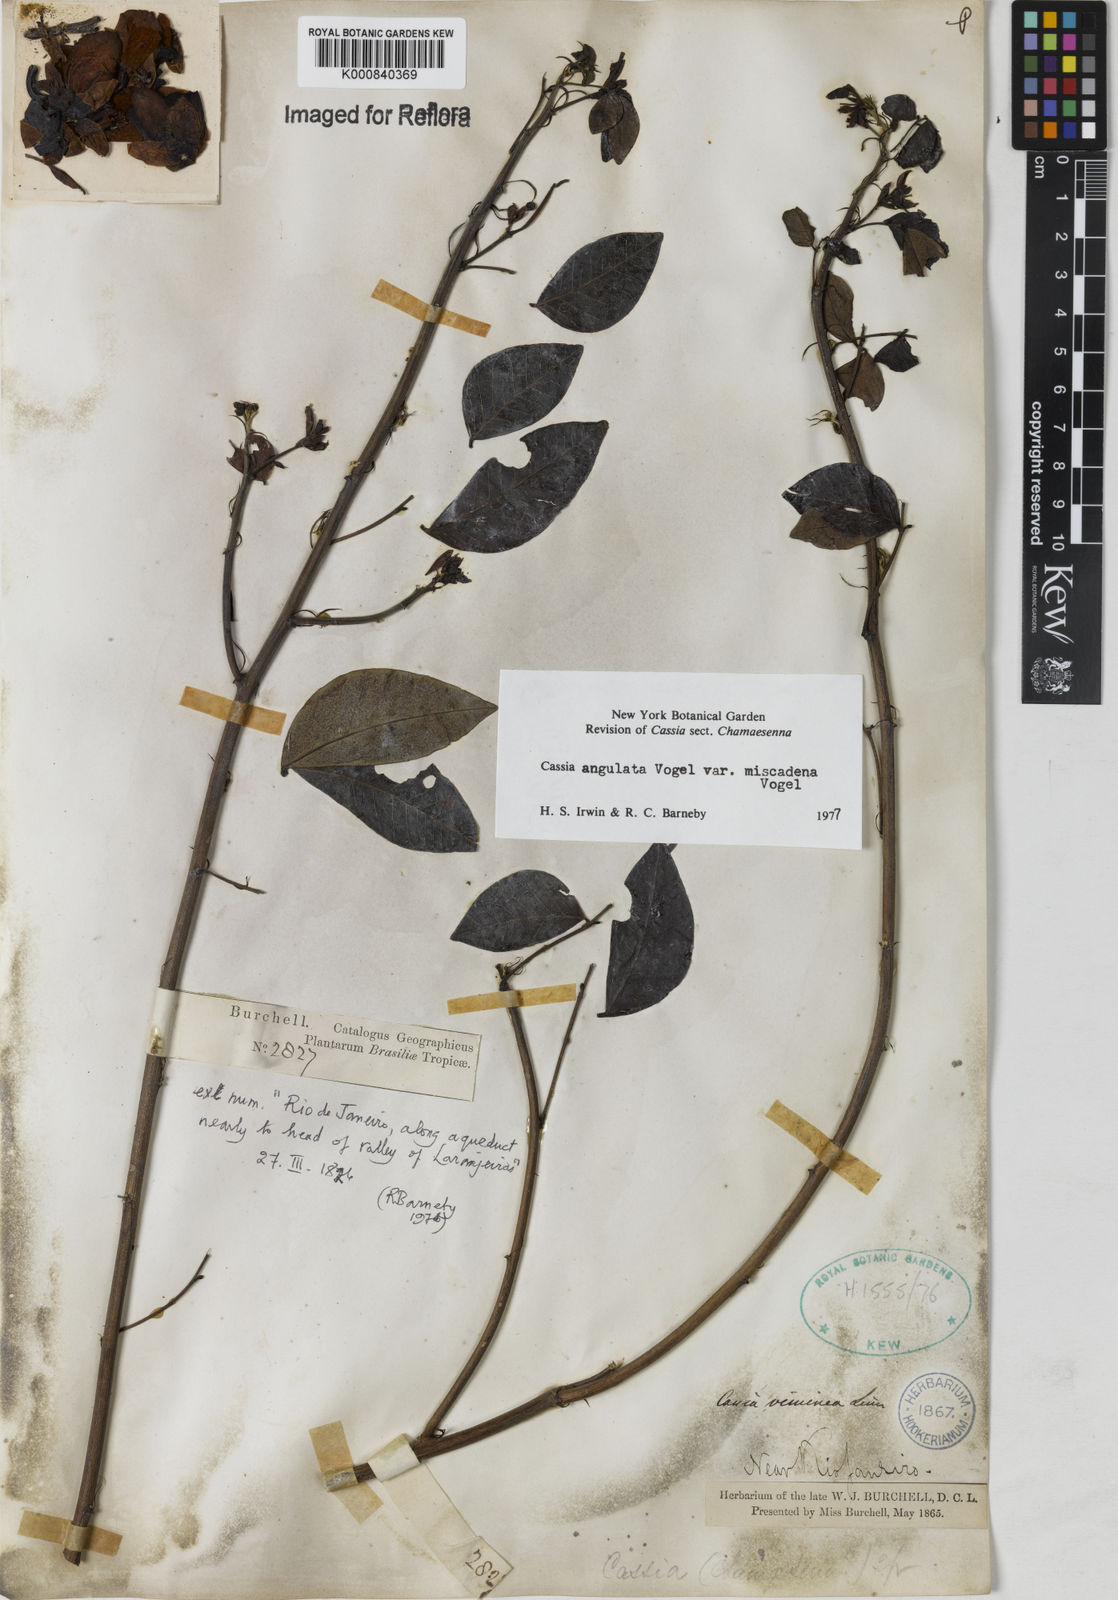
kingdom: Plantae
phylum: Tracheophyta
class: Magnoliopsida
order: Fabales
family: Fabaceae
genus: Senna
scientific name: Senna angulata
